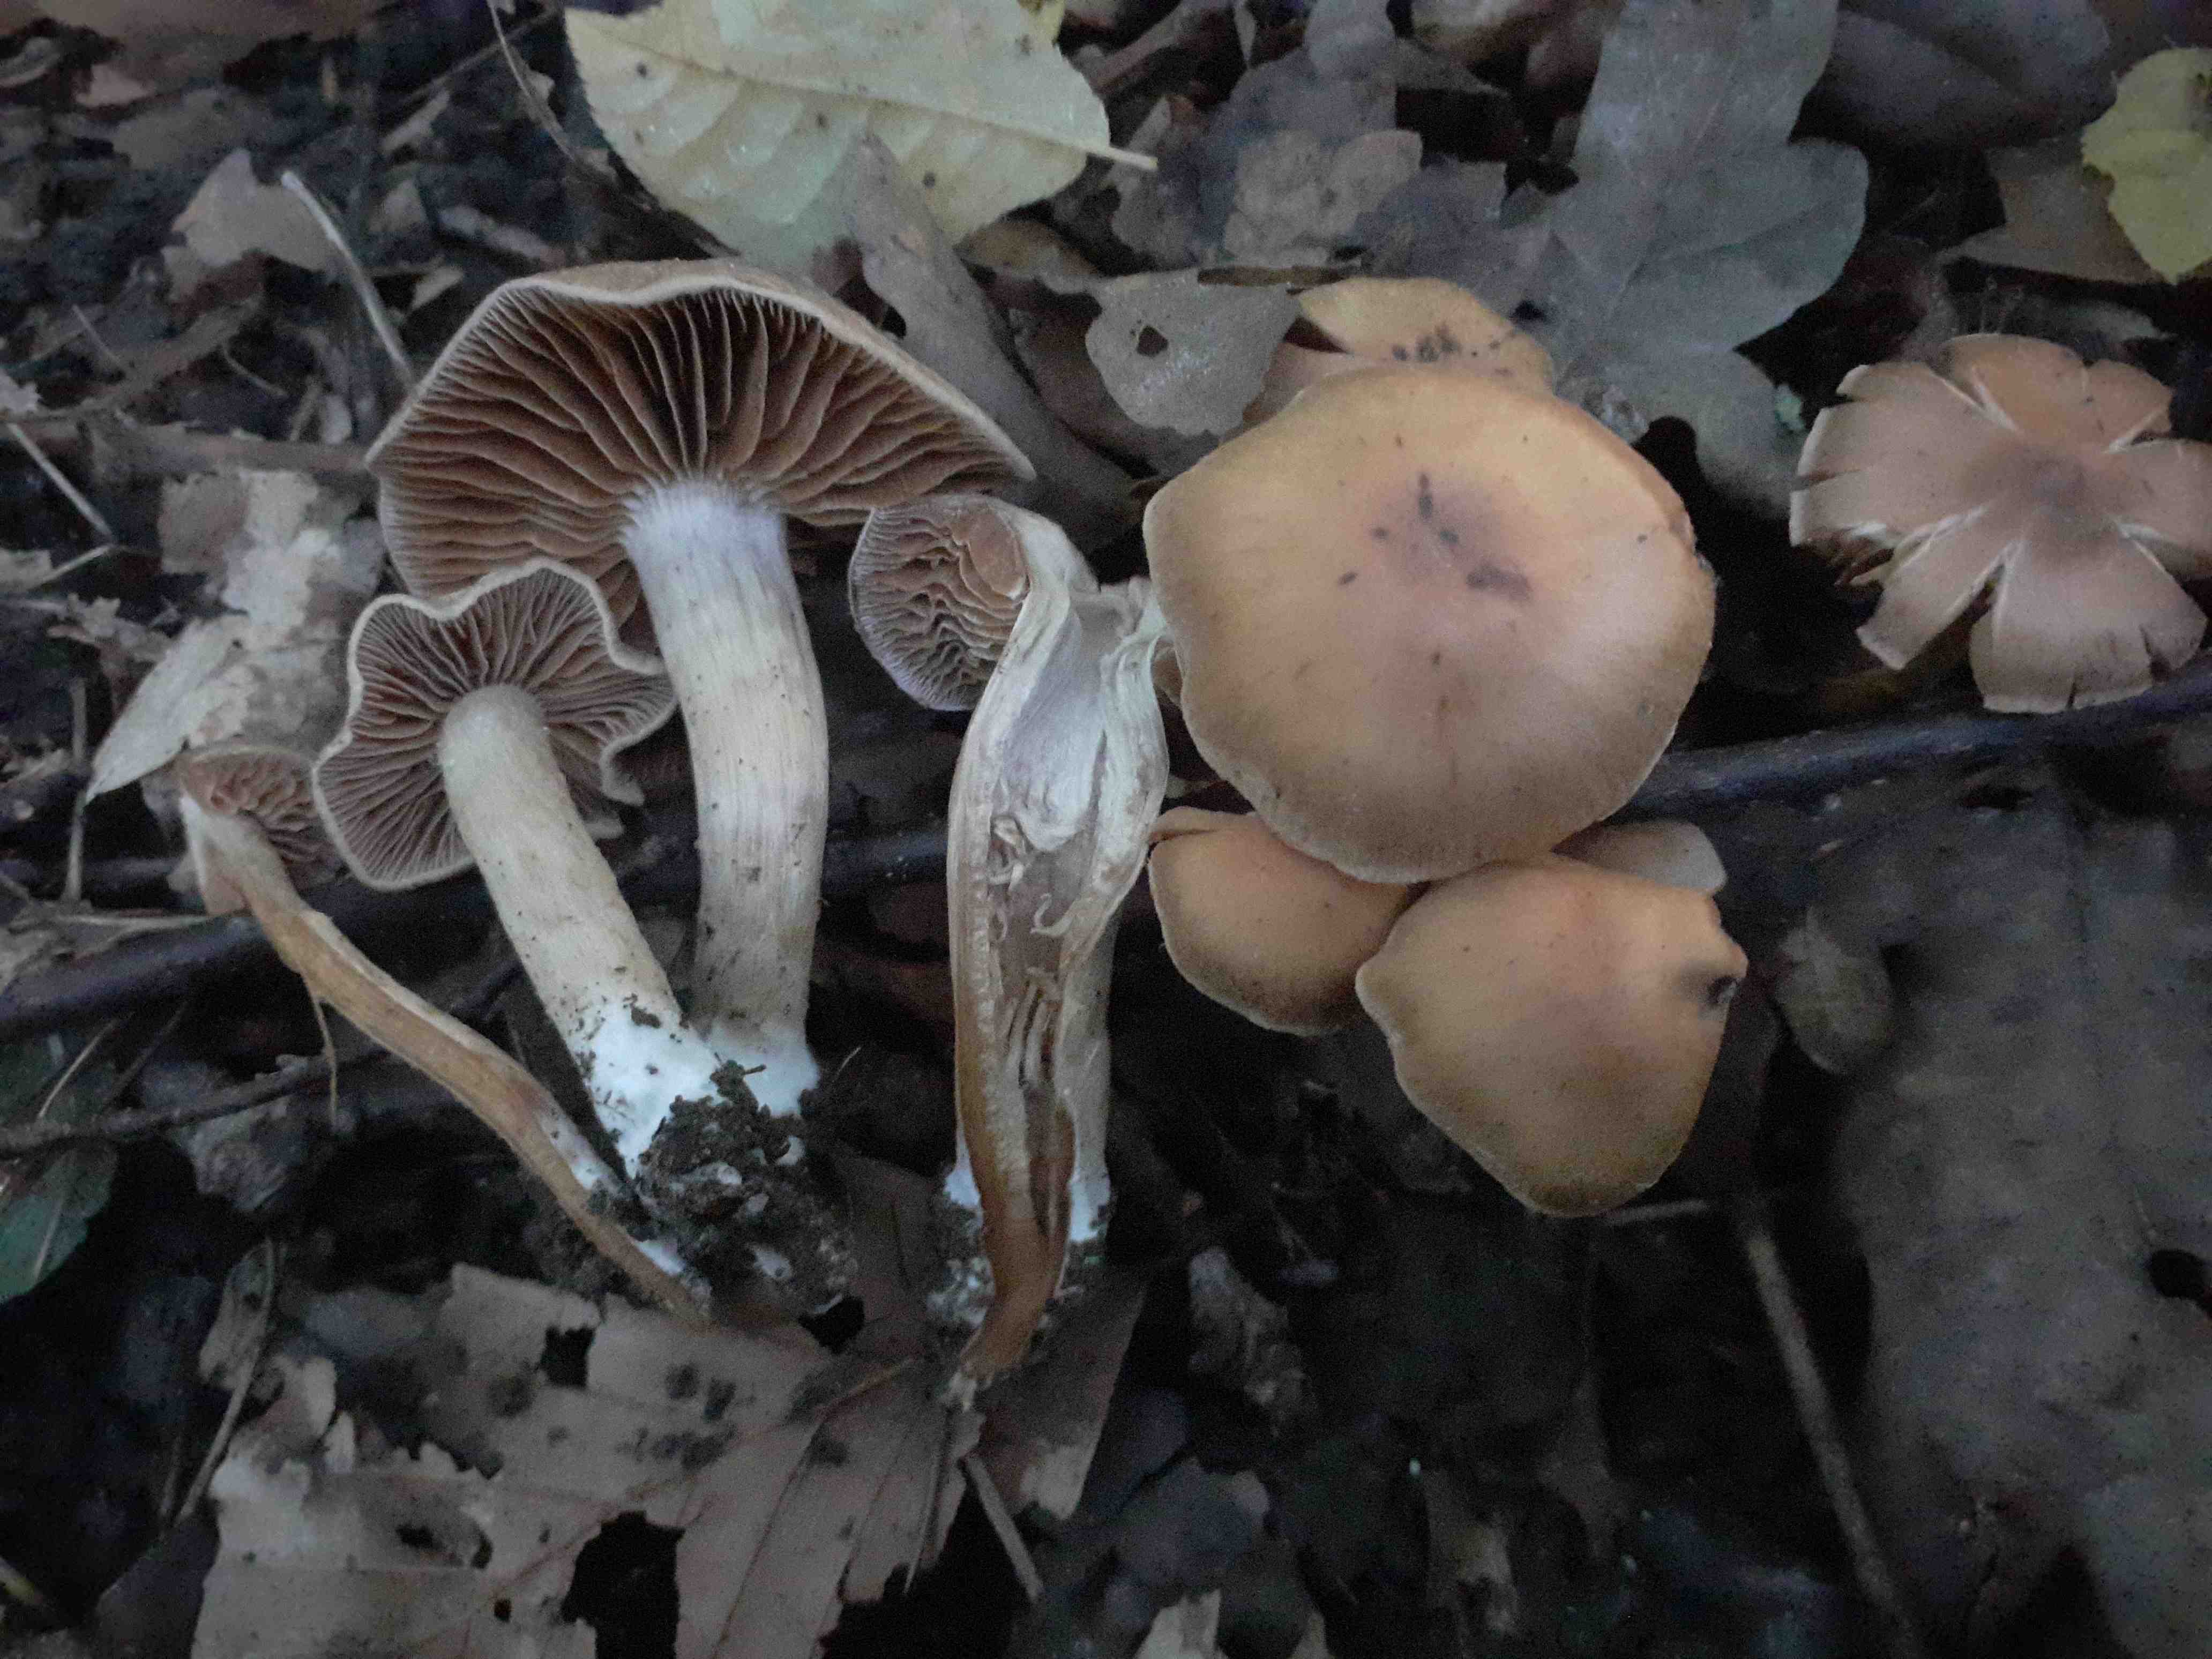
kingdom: Fungi
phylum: Basidiomycota
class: Agaricomycetes
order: Agaricales
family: Cortinariaceae
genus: Cortinarius
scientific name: Cortinarius fuscogracilescens
